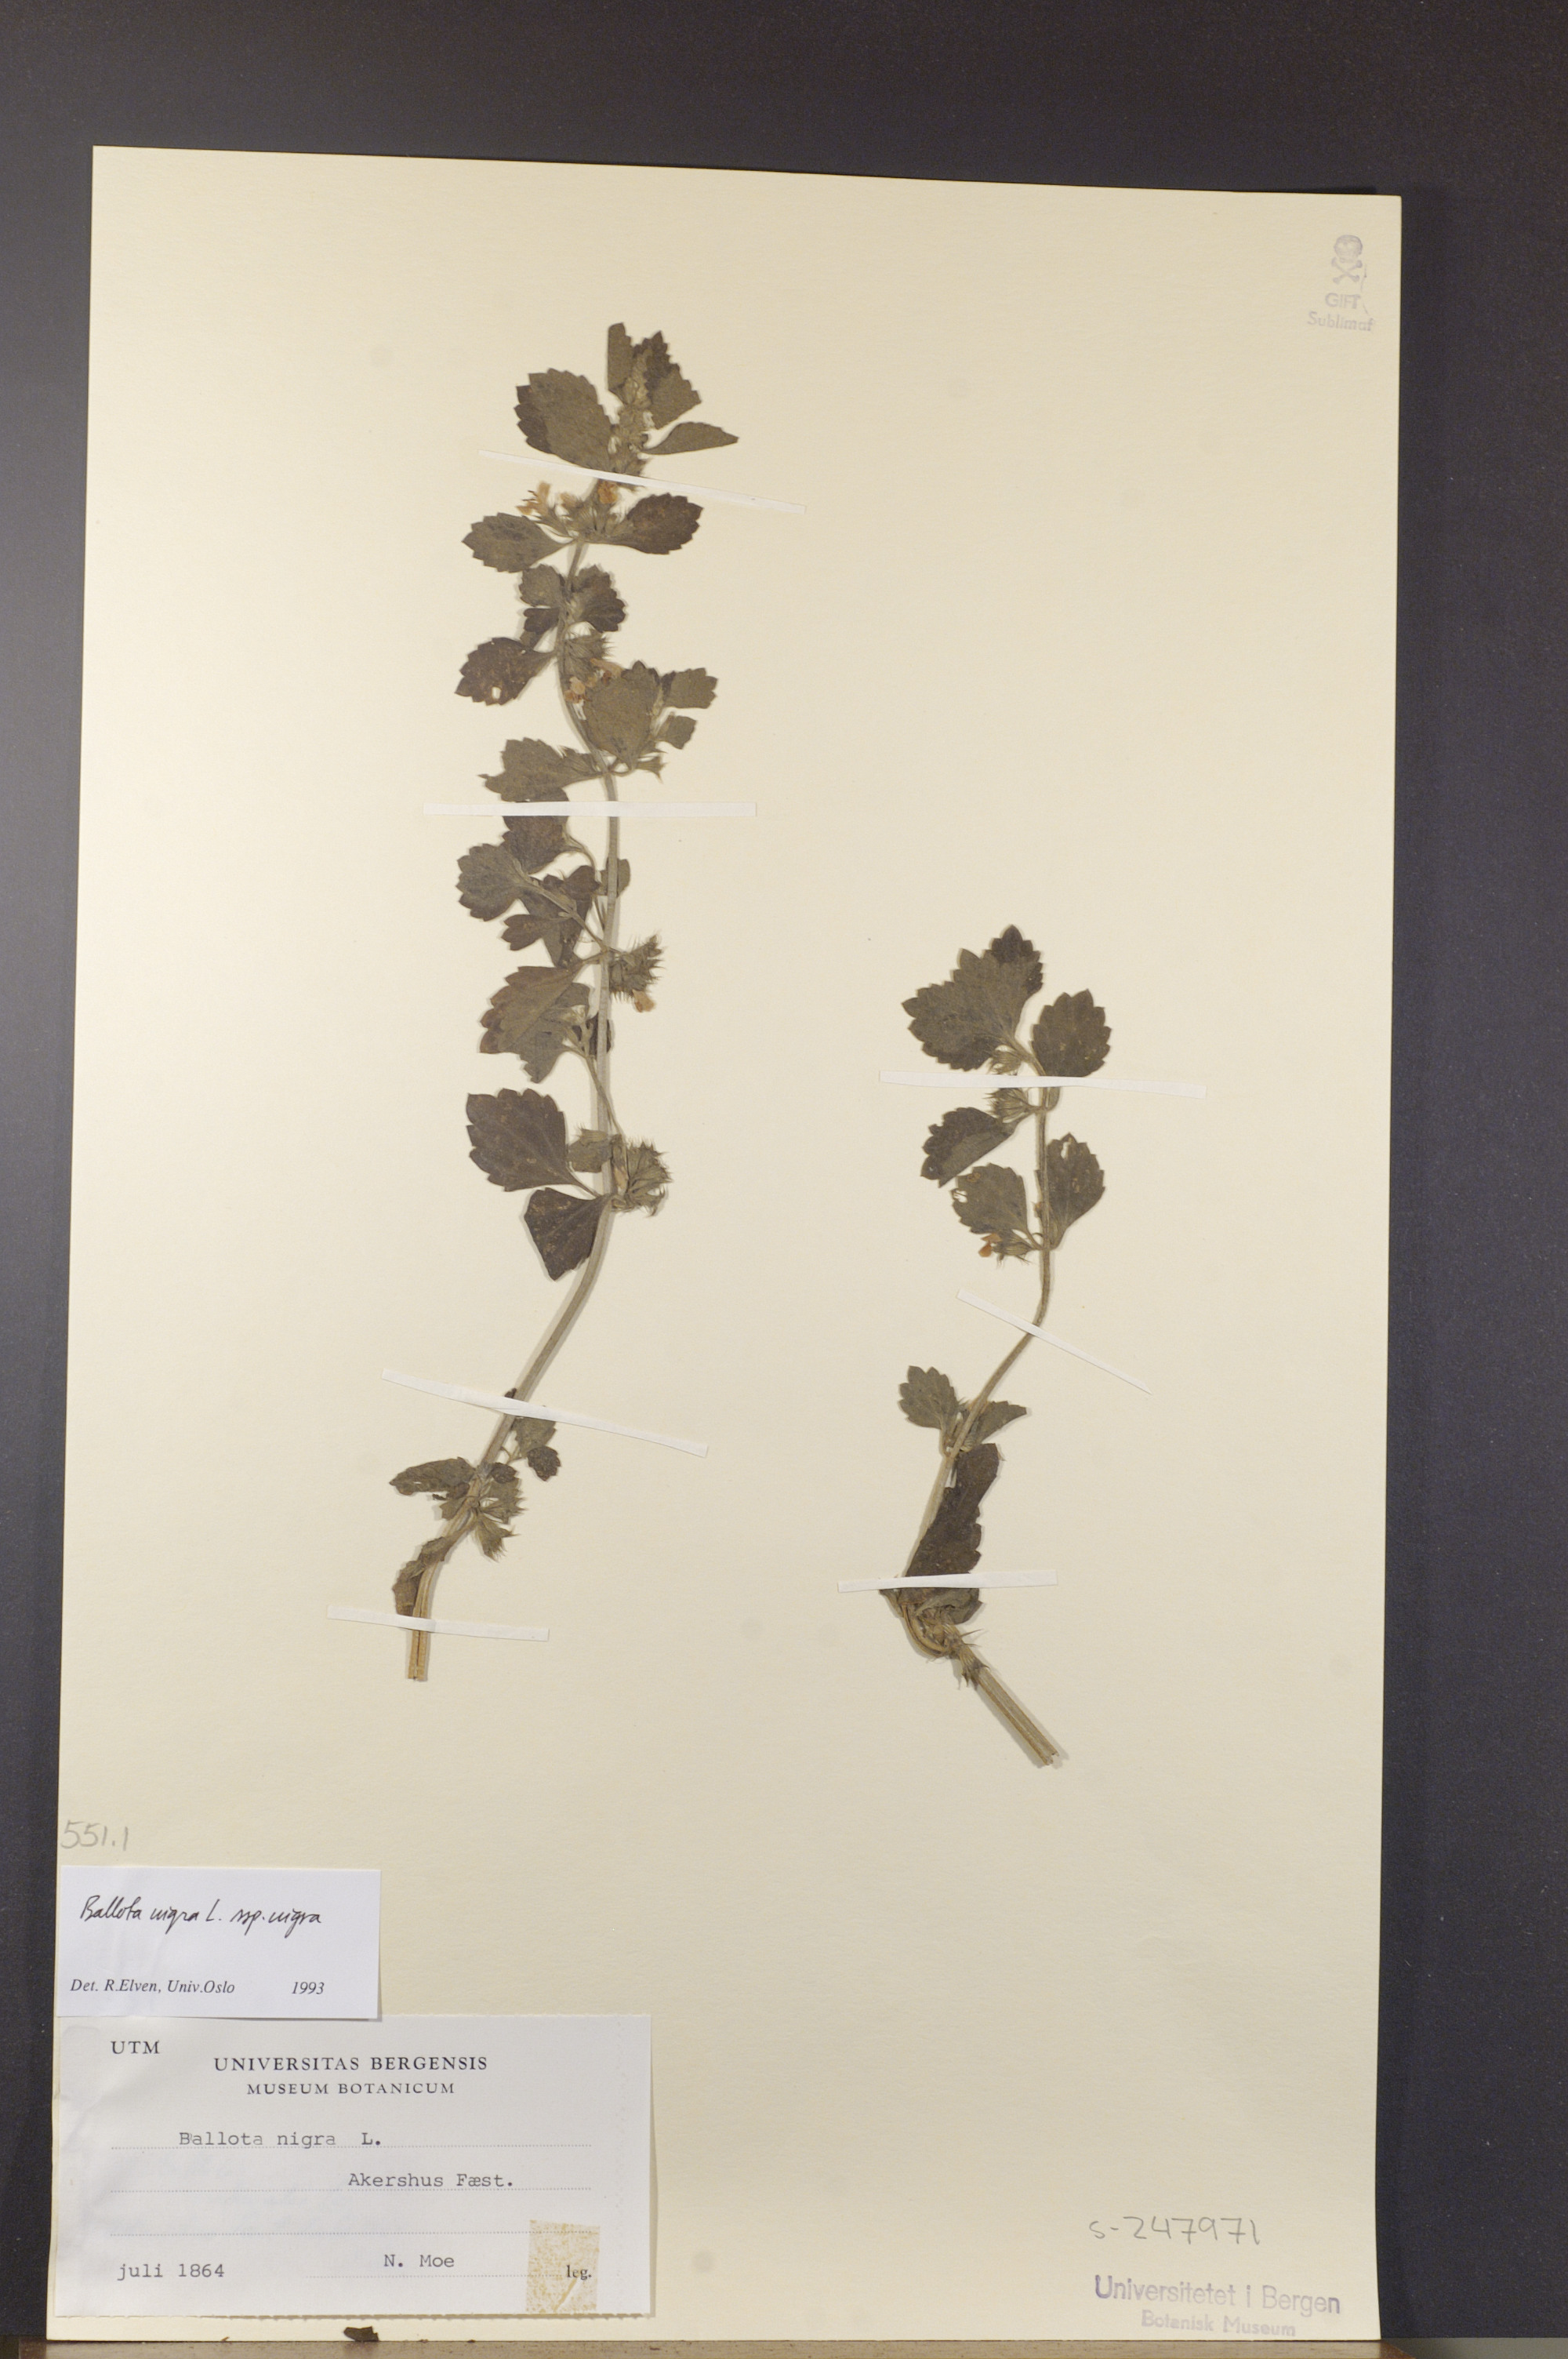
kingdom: Plantae
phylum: Tracheophyta
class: Magnoliopsida
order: Lamiales
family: Lamiaceae
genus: Ballota
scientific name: Ballota nigra
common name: Black horehound
